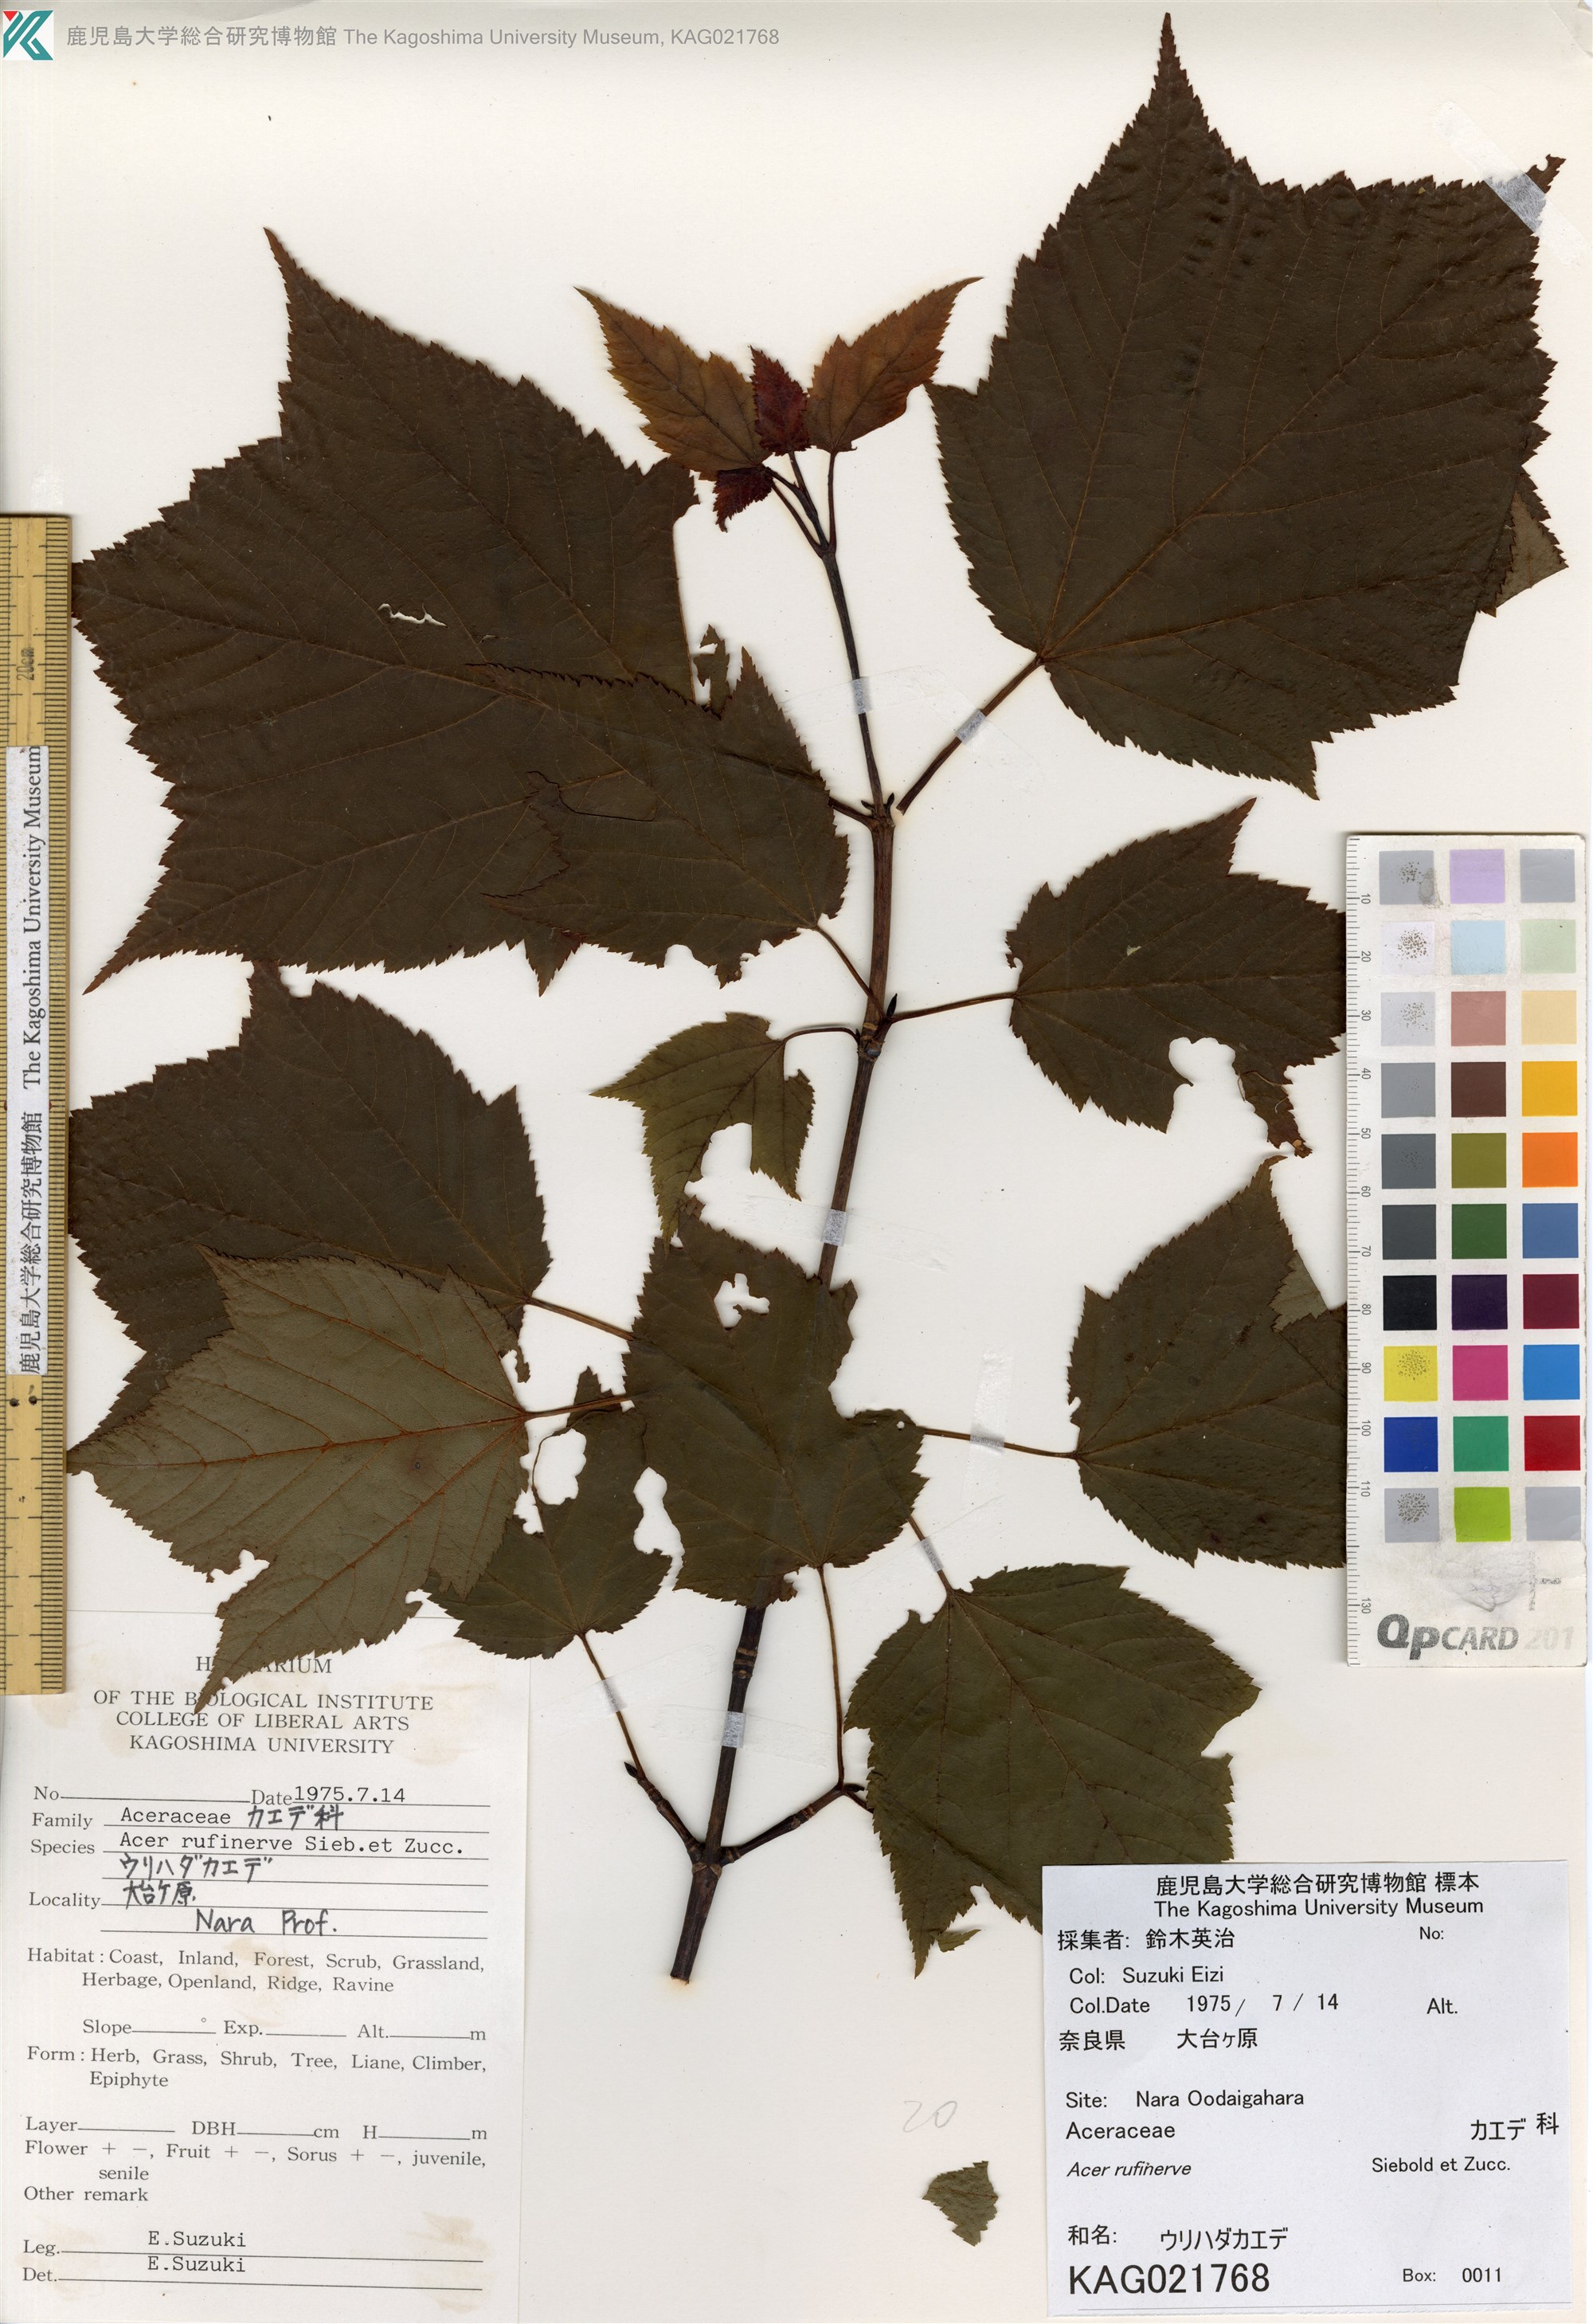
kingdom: Plantae
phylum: Tracheophyta
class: Magnoliopsida
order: Sapindales
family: Sapindaceae
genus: Acer
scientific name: Acer rufinerve
